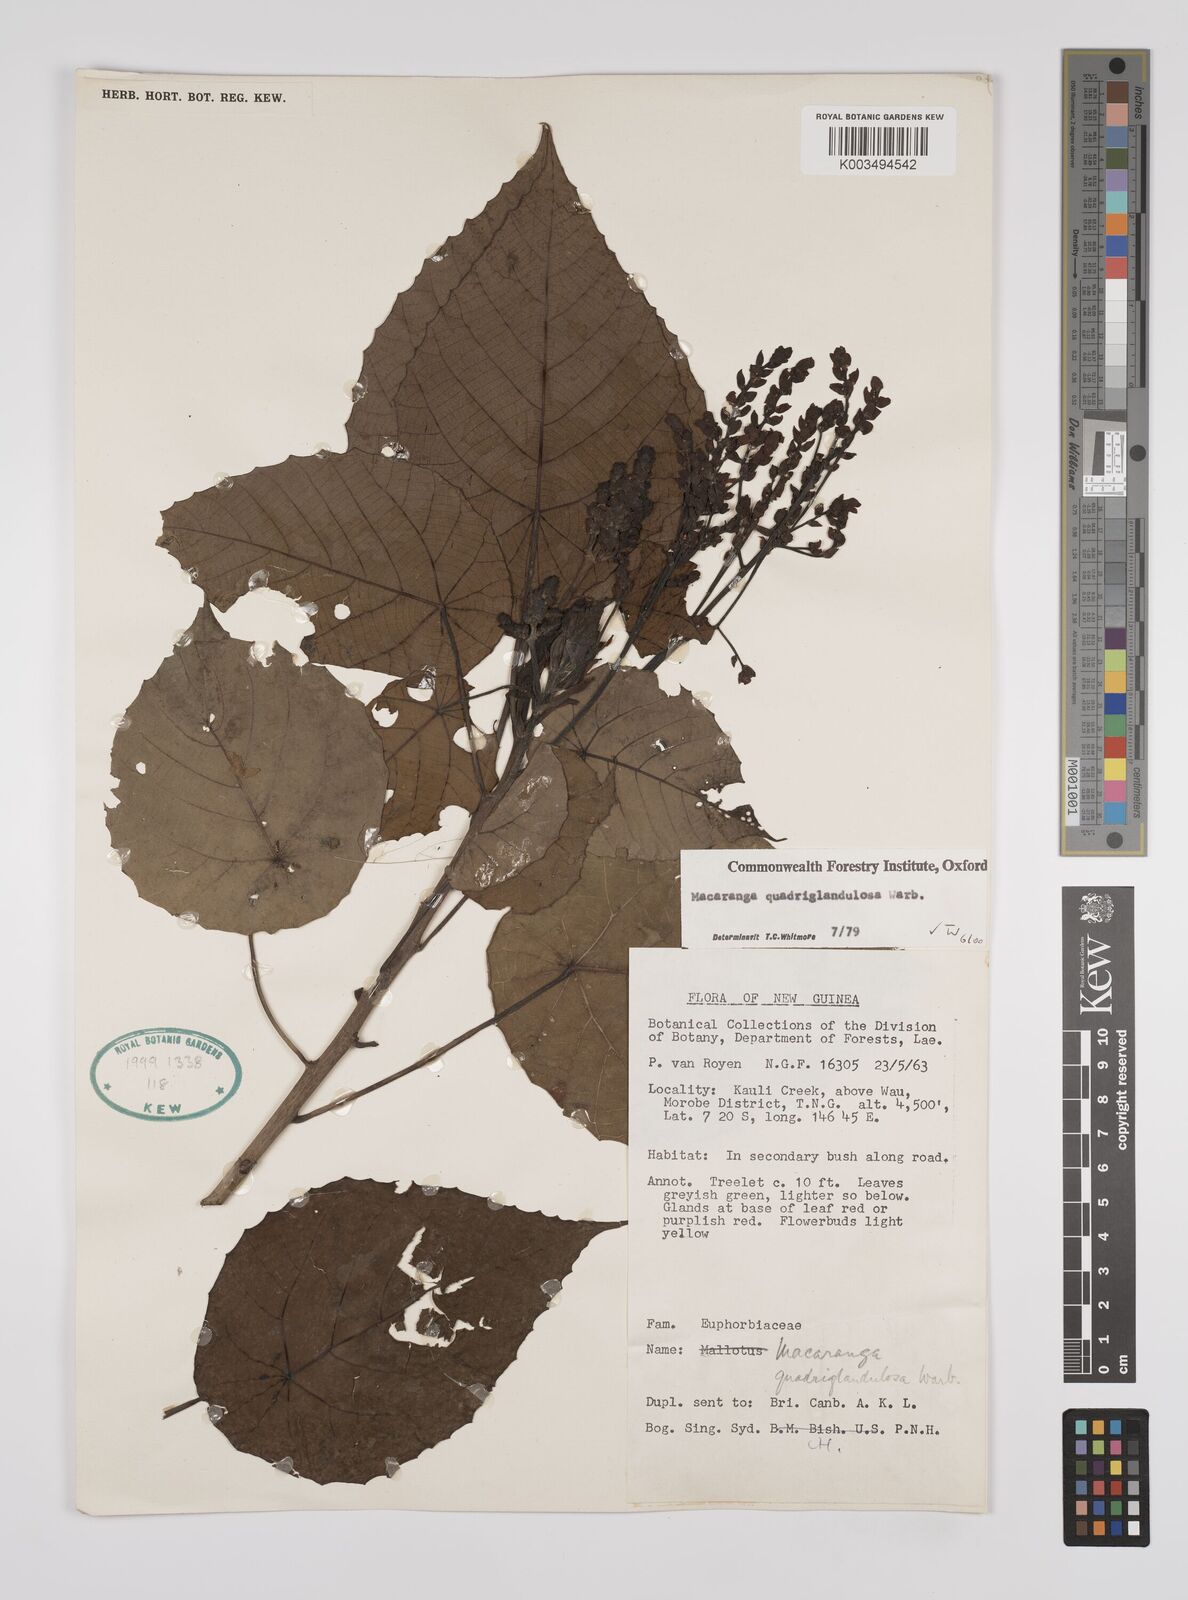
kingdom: Plantae
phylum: Tracheophyta
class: Magnoliopsida
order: Malpighiales
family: Euphorbiaceae
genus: Macaranga
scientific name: Macaranga quadriglandulosa
